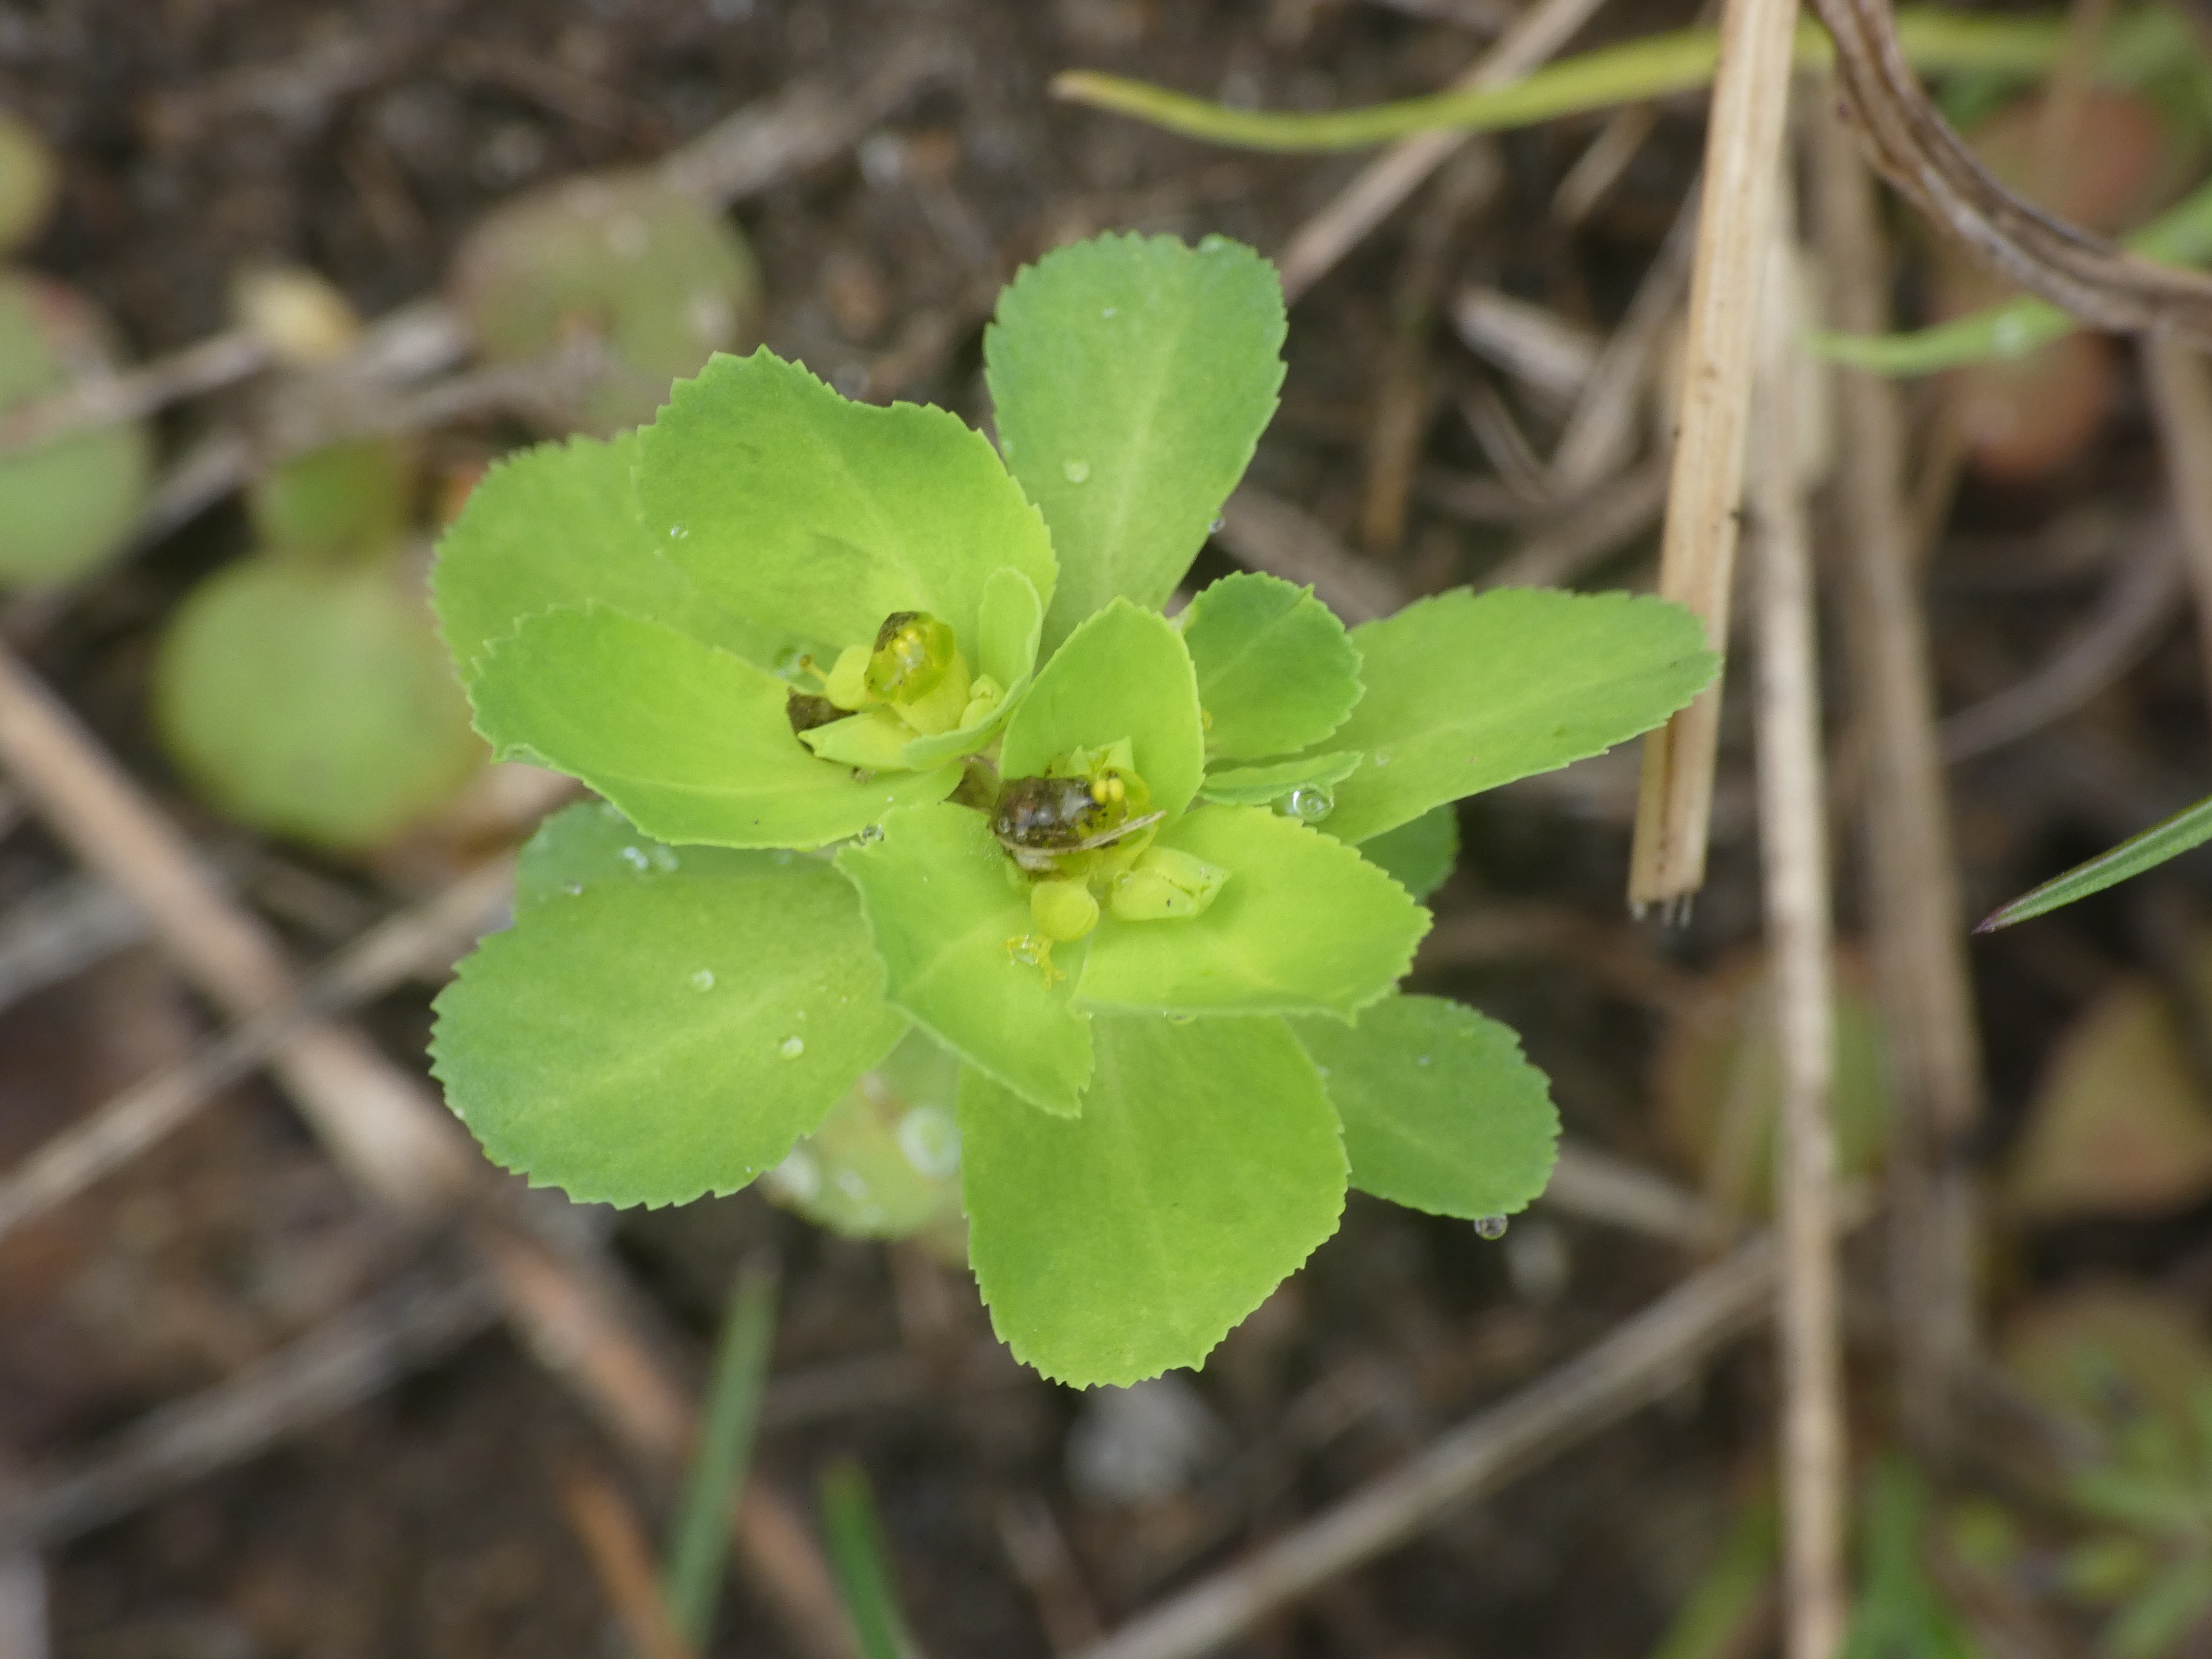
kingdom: Plantae
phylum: Tracheophyta
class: Magnoliopsida
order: Malpighiales
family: Euphorbiaceae
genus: Euphorbia
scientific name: Euphorbia helioscopia
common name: Skærm-vortemælk
